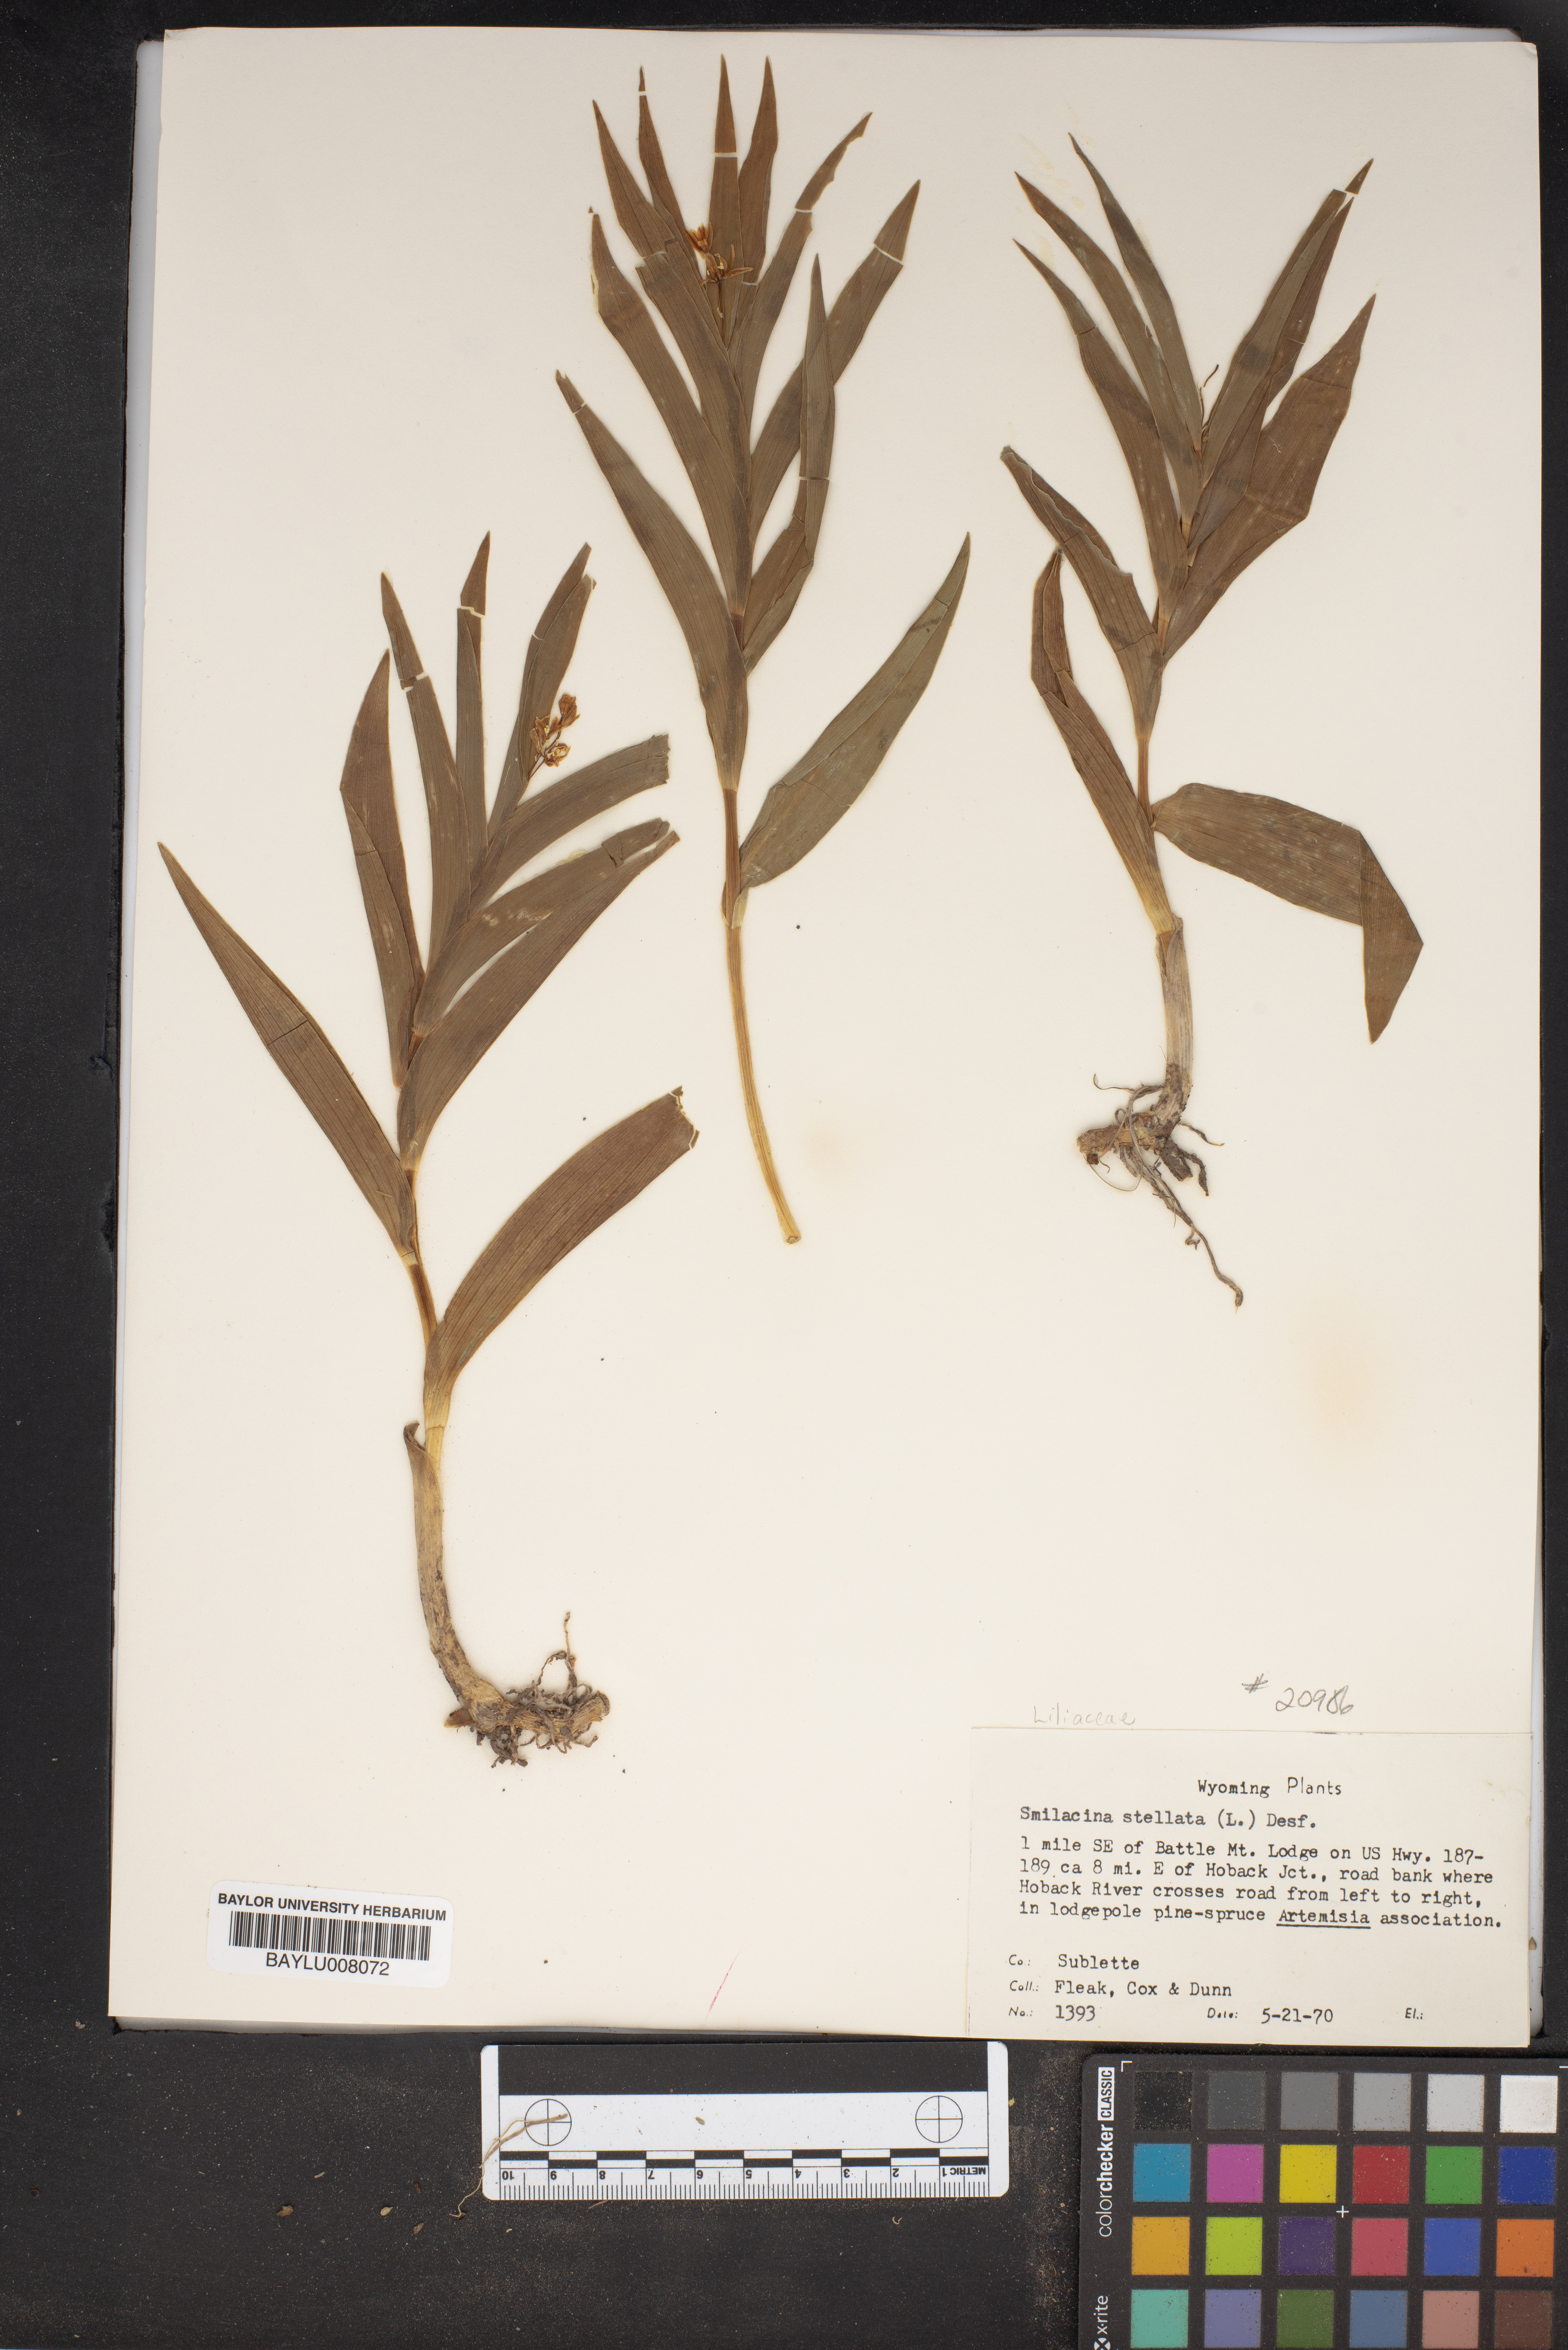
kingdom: Plantae
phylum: Tracheophyta
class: Liliopsida
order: Asparagales
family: Asparagaceae
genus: Maianthemum
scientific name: Maianthemum stellatum
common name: Little false solomon's seal
